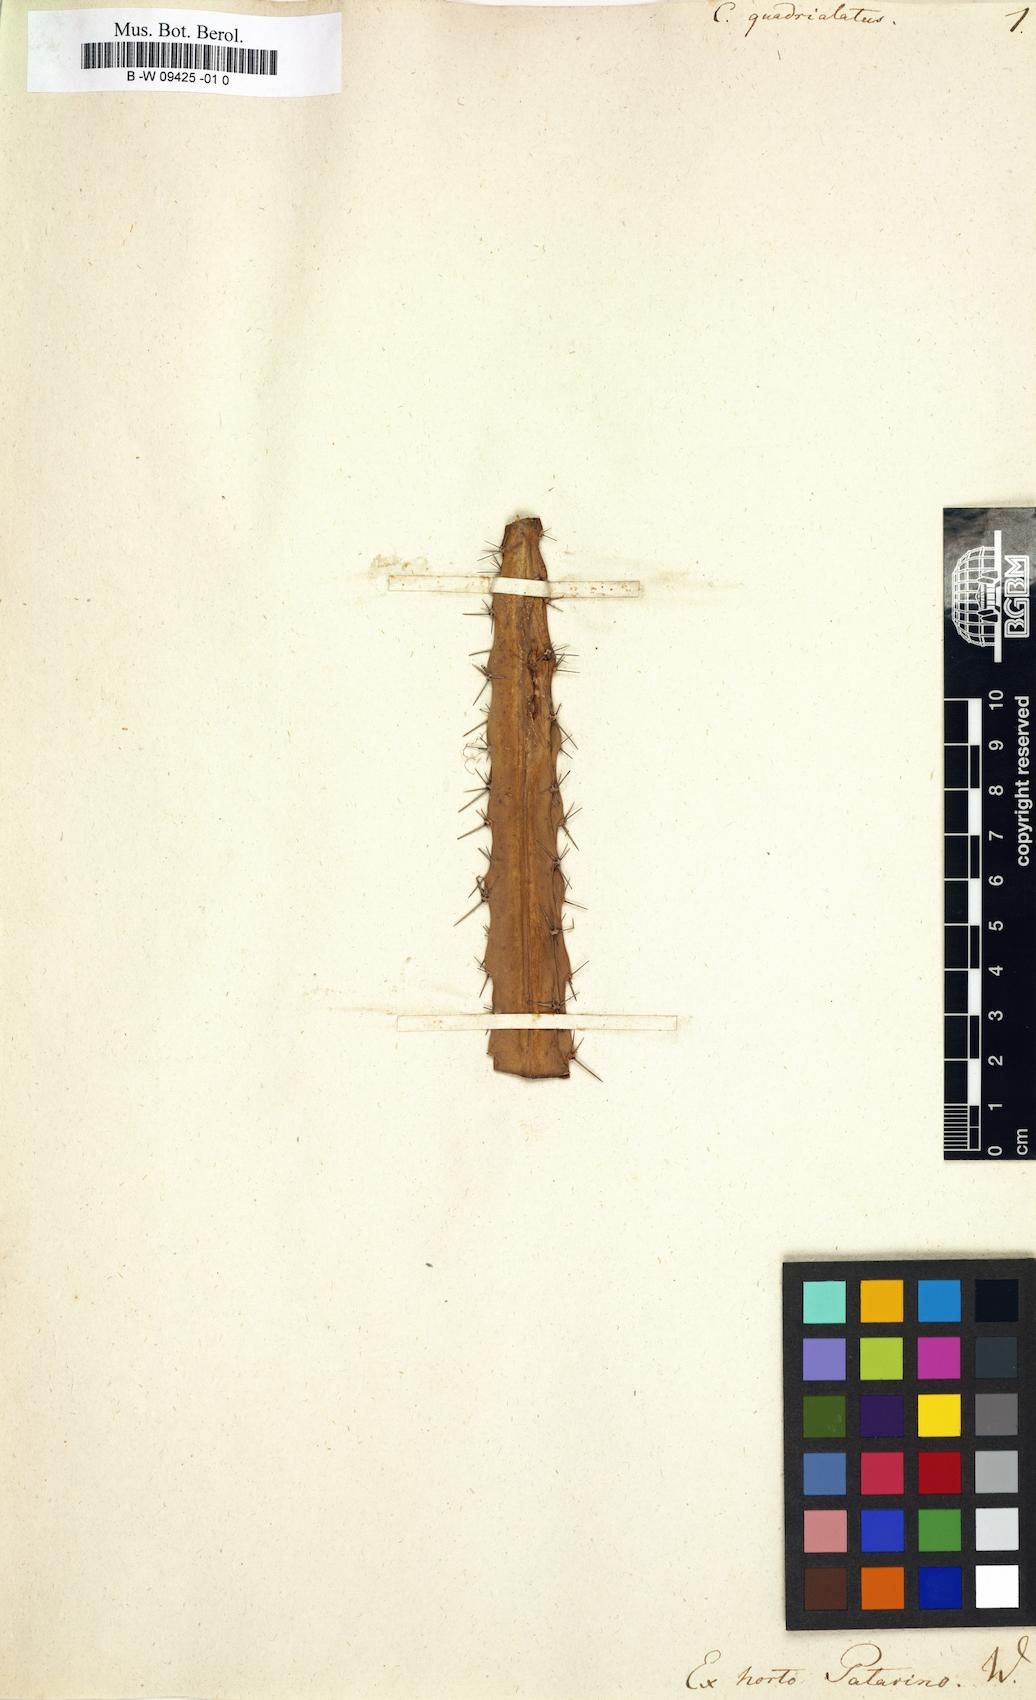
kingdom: Plantae
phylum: Tracheophyta
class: Magnoliopsida
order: Caryophyllales
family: Cactaceae
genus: Cactus
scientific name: Cactus
